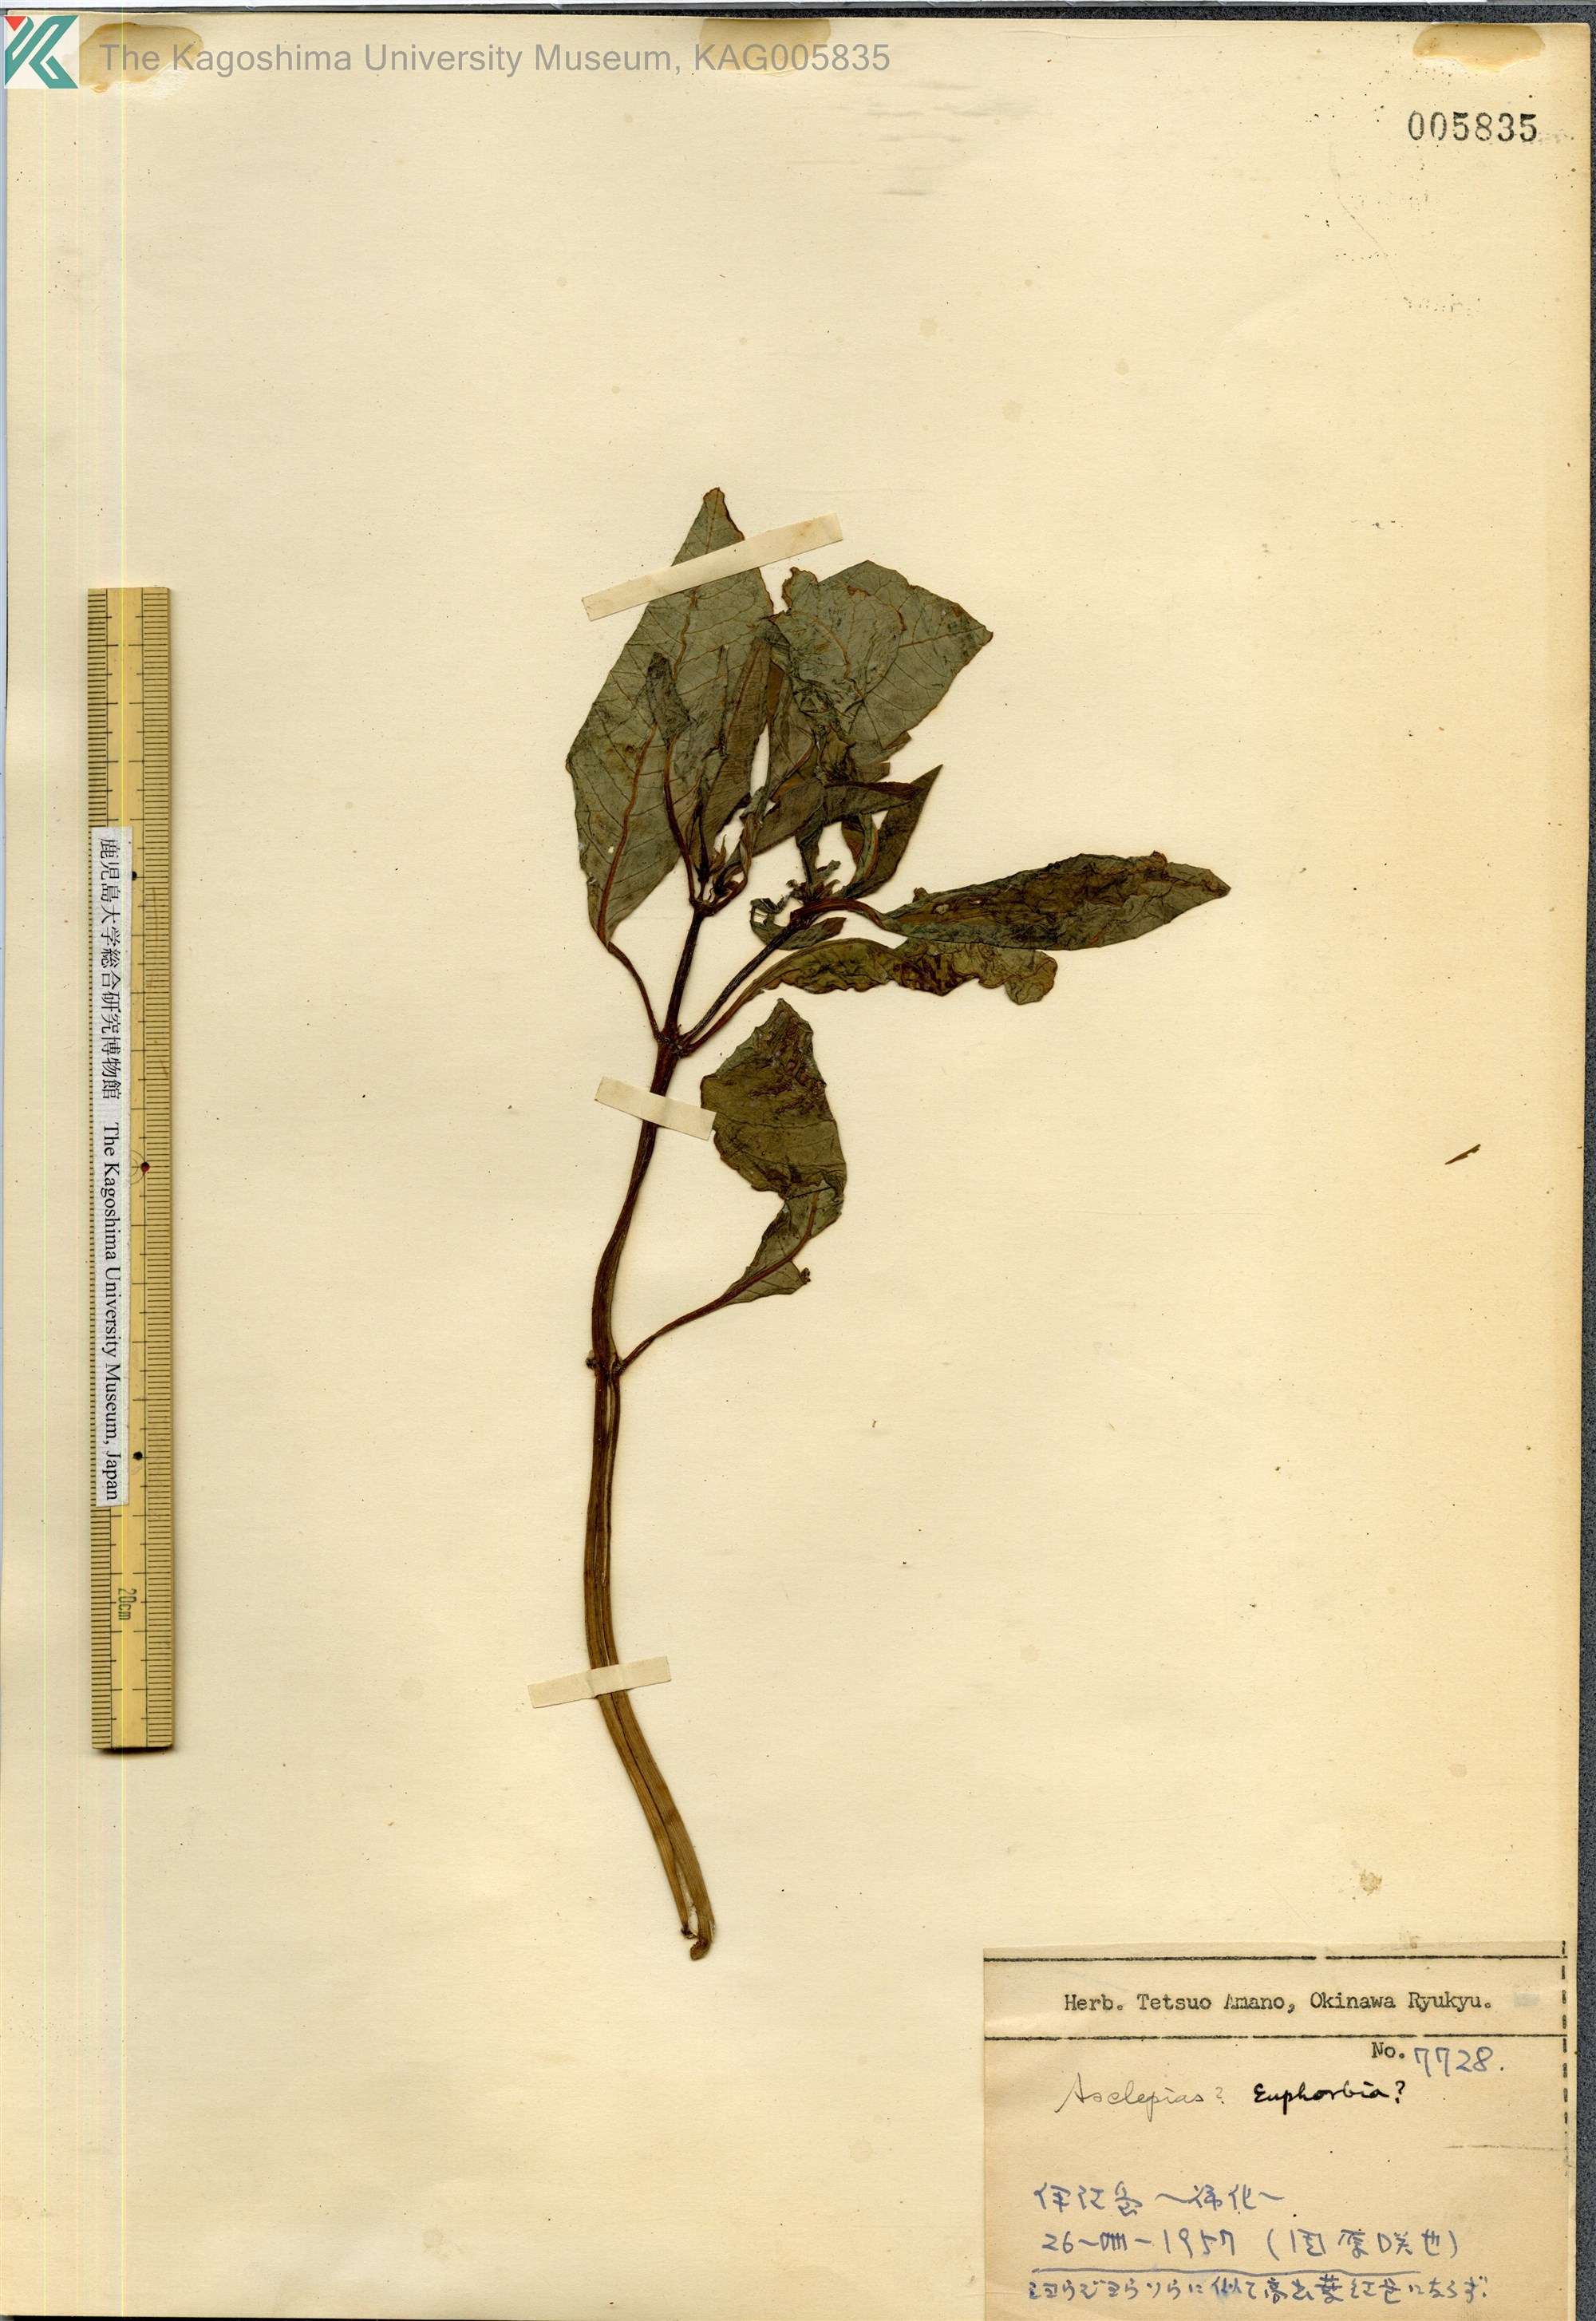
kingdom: Plantae
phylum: Tracheophyta
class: Magnoliopsida
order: Gentianales
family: Apocynaceae
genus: Asclepias
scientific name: Asclepias
